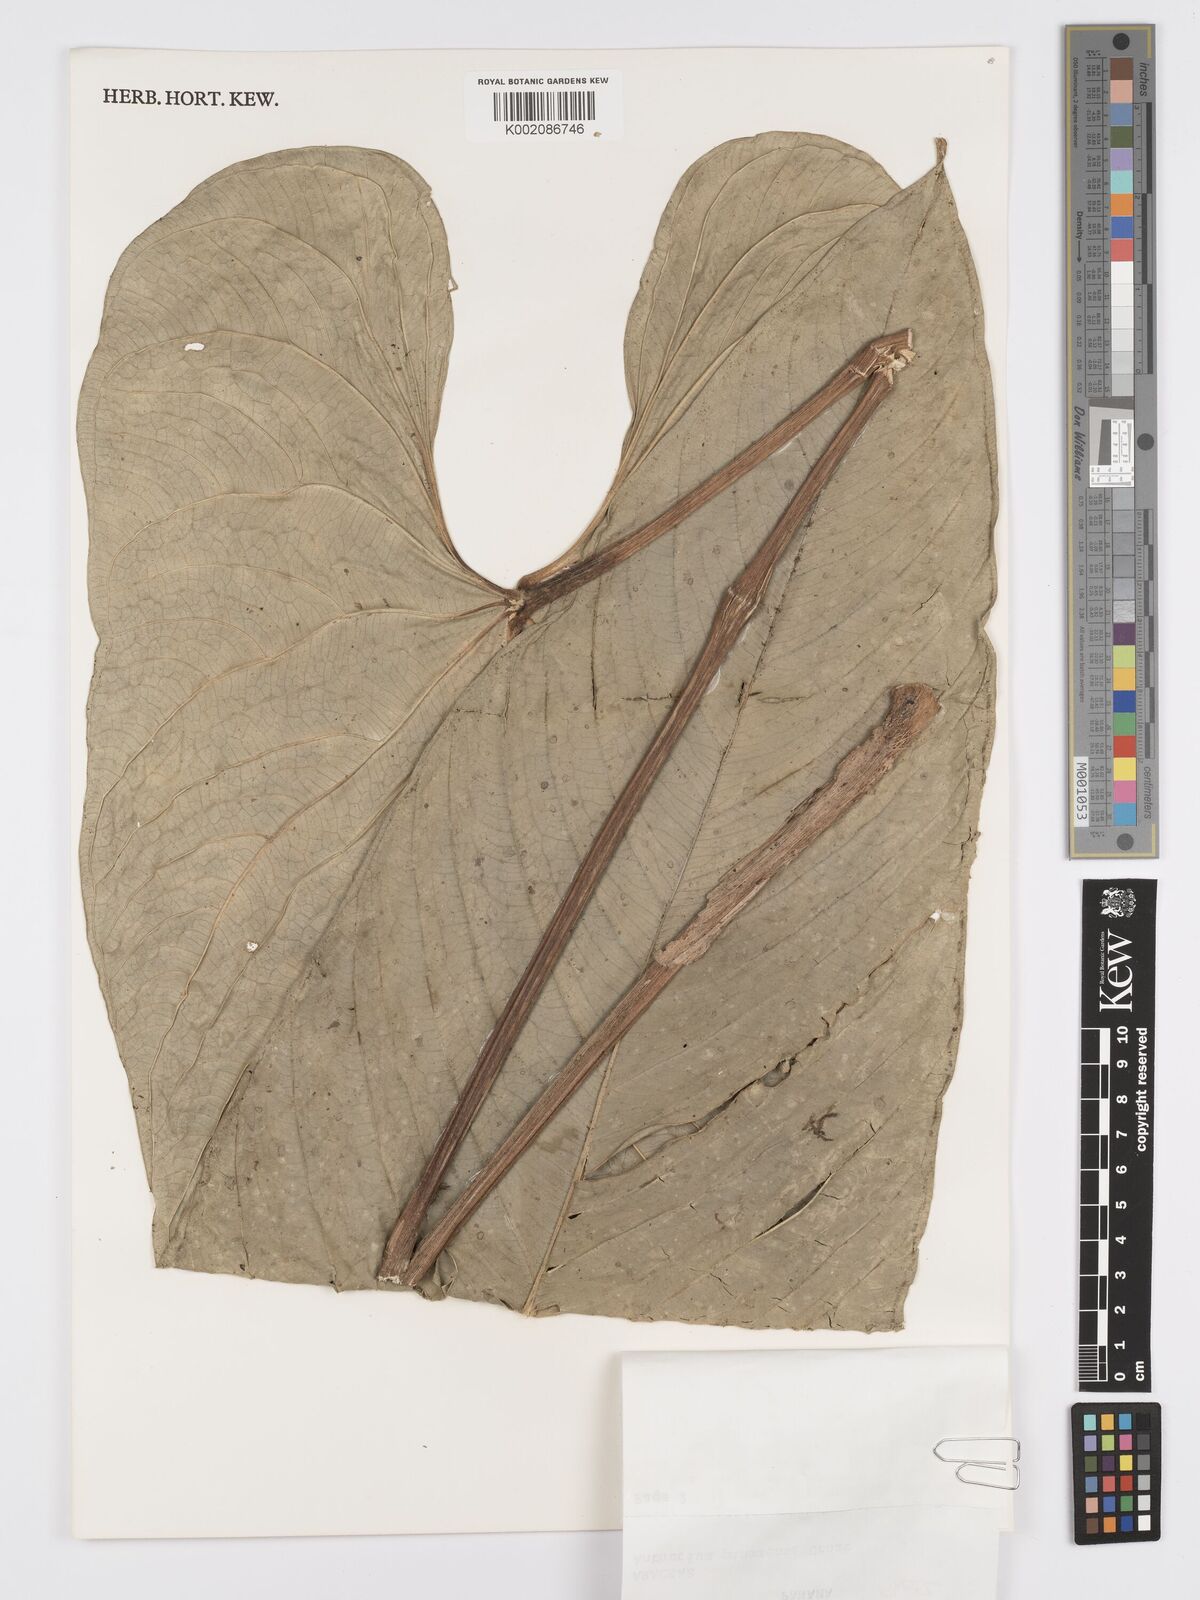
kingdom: Plantae
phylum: Tracheophyta
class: Liliopsida
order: Alismatales
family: Araceae
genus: Anthurium
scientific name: Anthurium panamense
